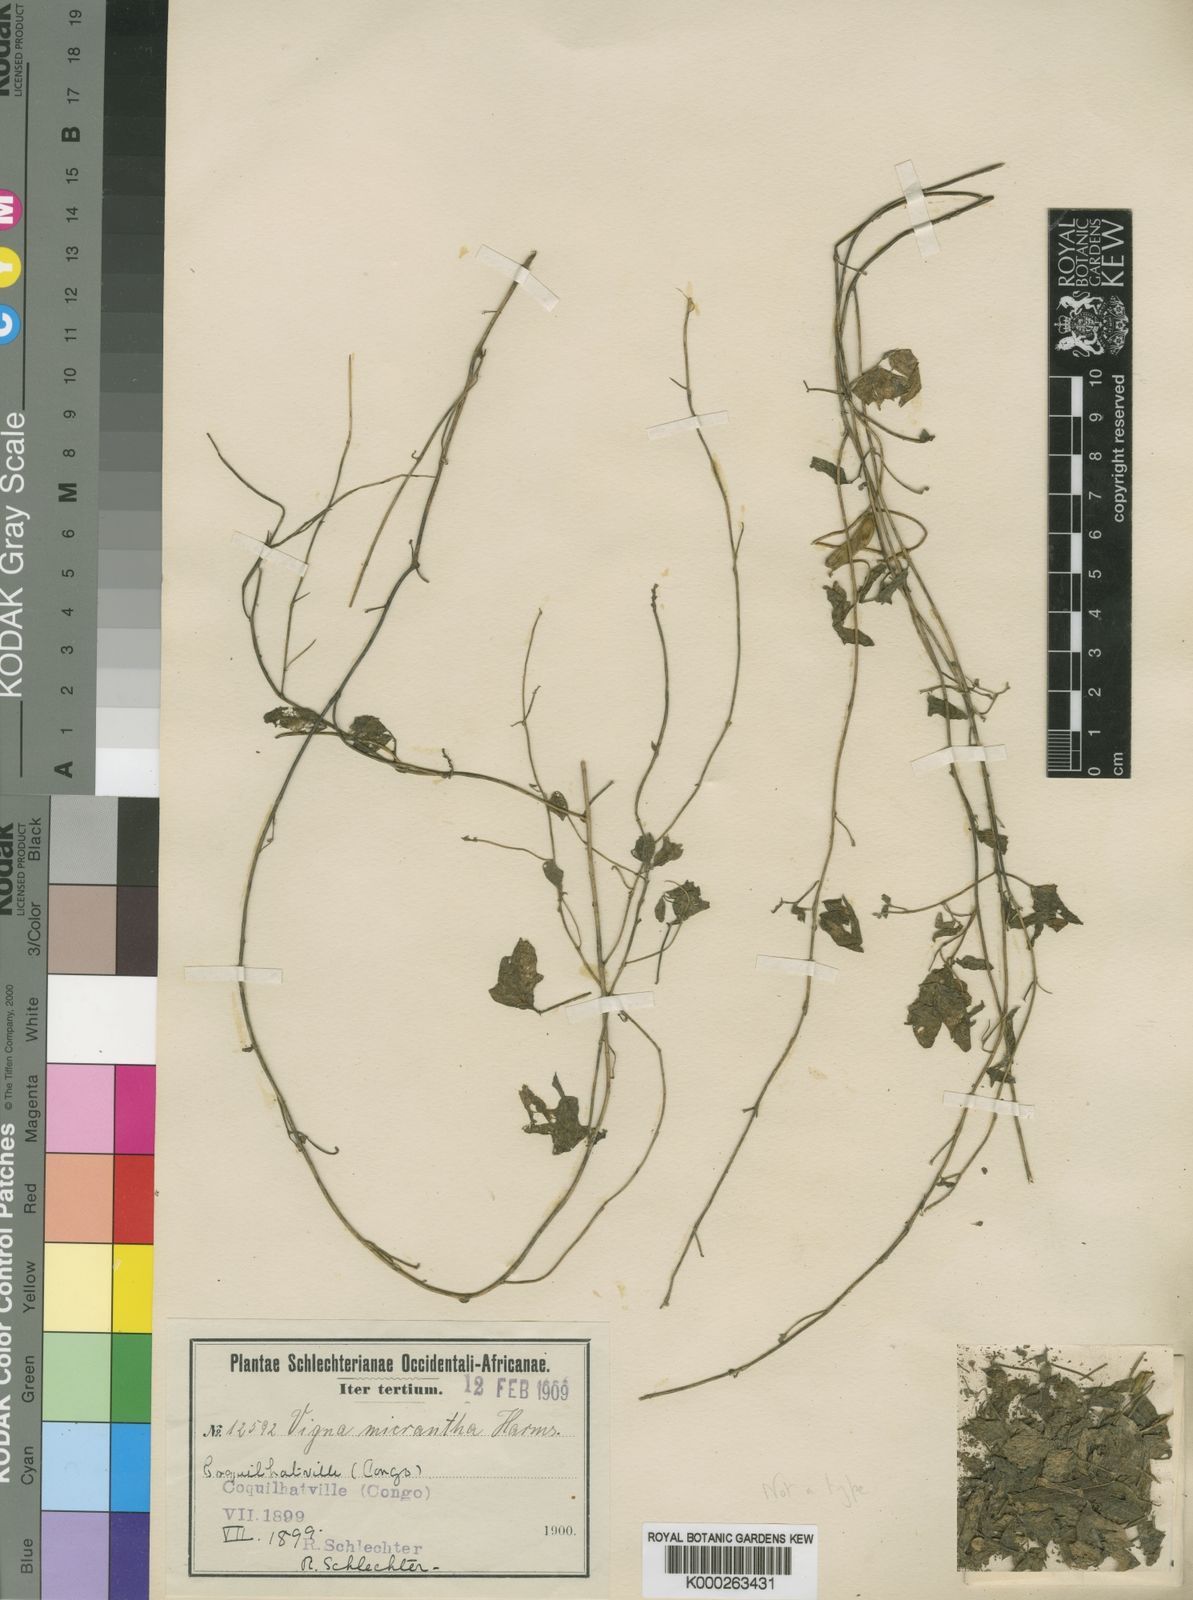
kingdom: Plantae
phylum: Tracheophyta
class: Magnoliopsida
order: Fabales
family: Fabaceae
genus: Vigna
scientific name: Vigna comosa
